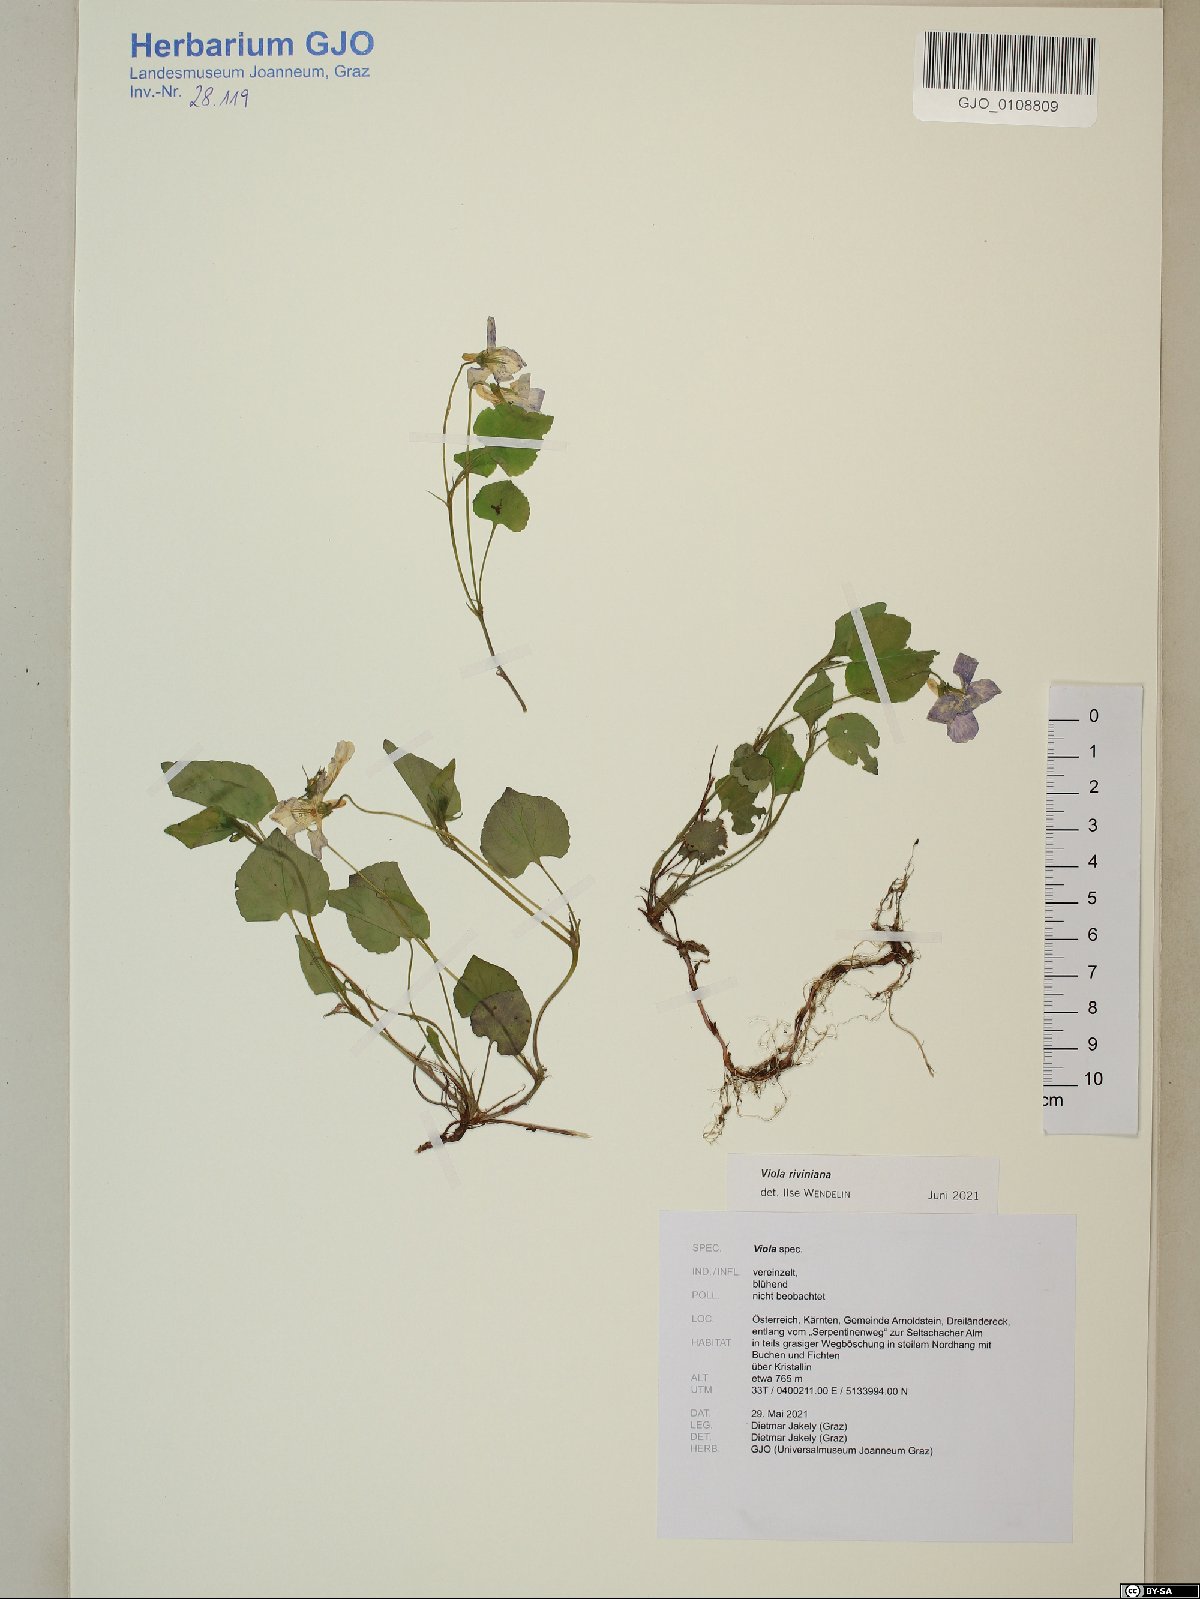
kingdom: Plantae
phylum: Tracheophyta
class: Magnoliopsida
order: Malpighiales
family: Violaceae
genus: Viola
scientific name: Viola riviniana
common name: Common dog-violet
